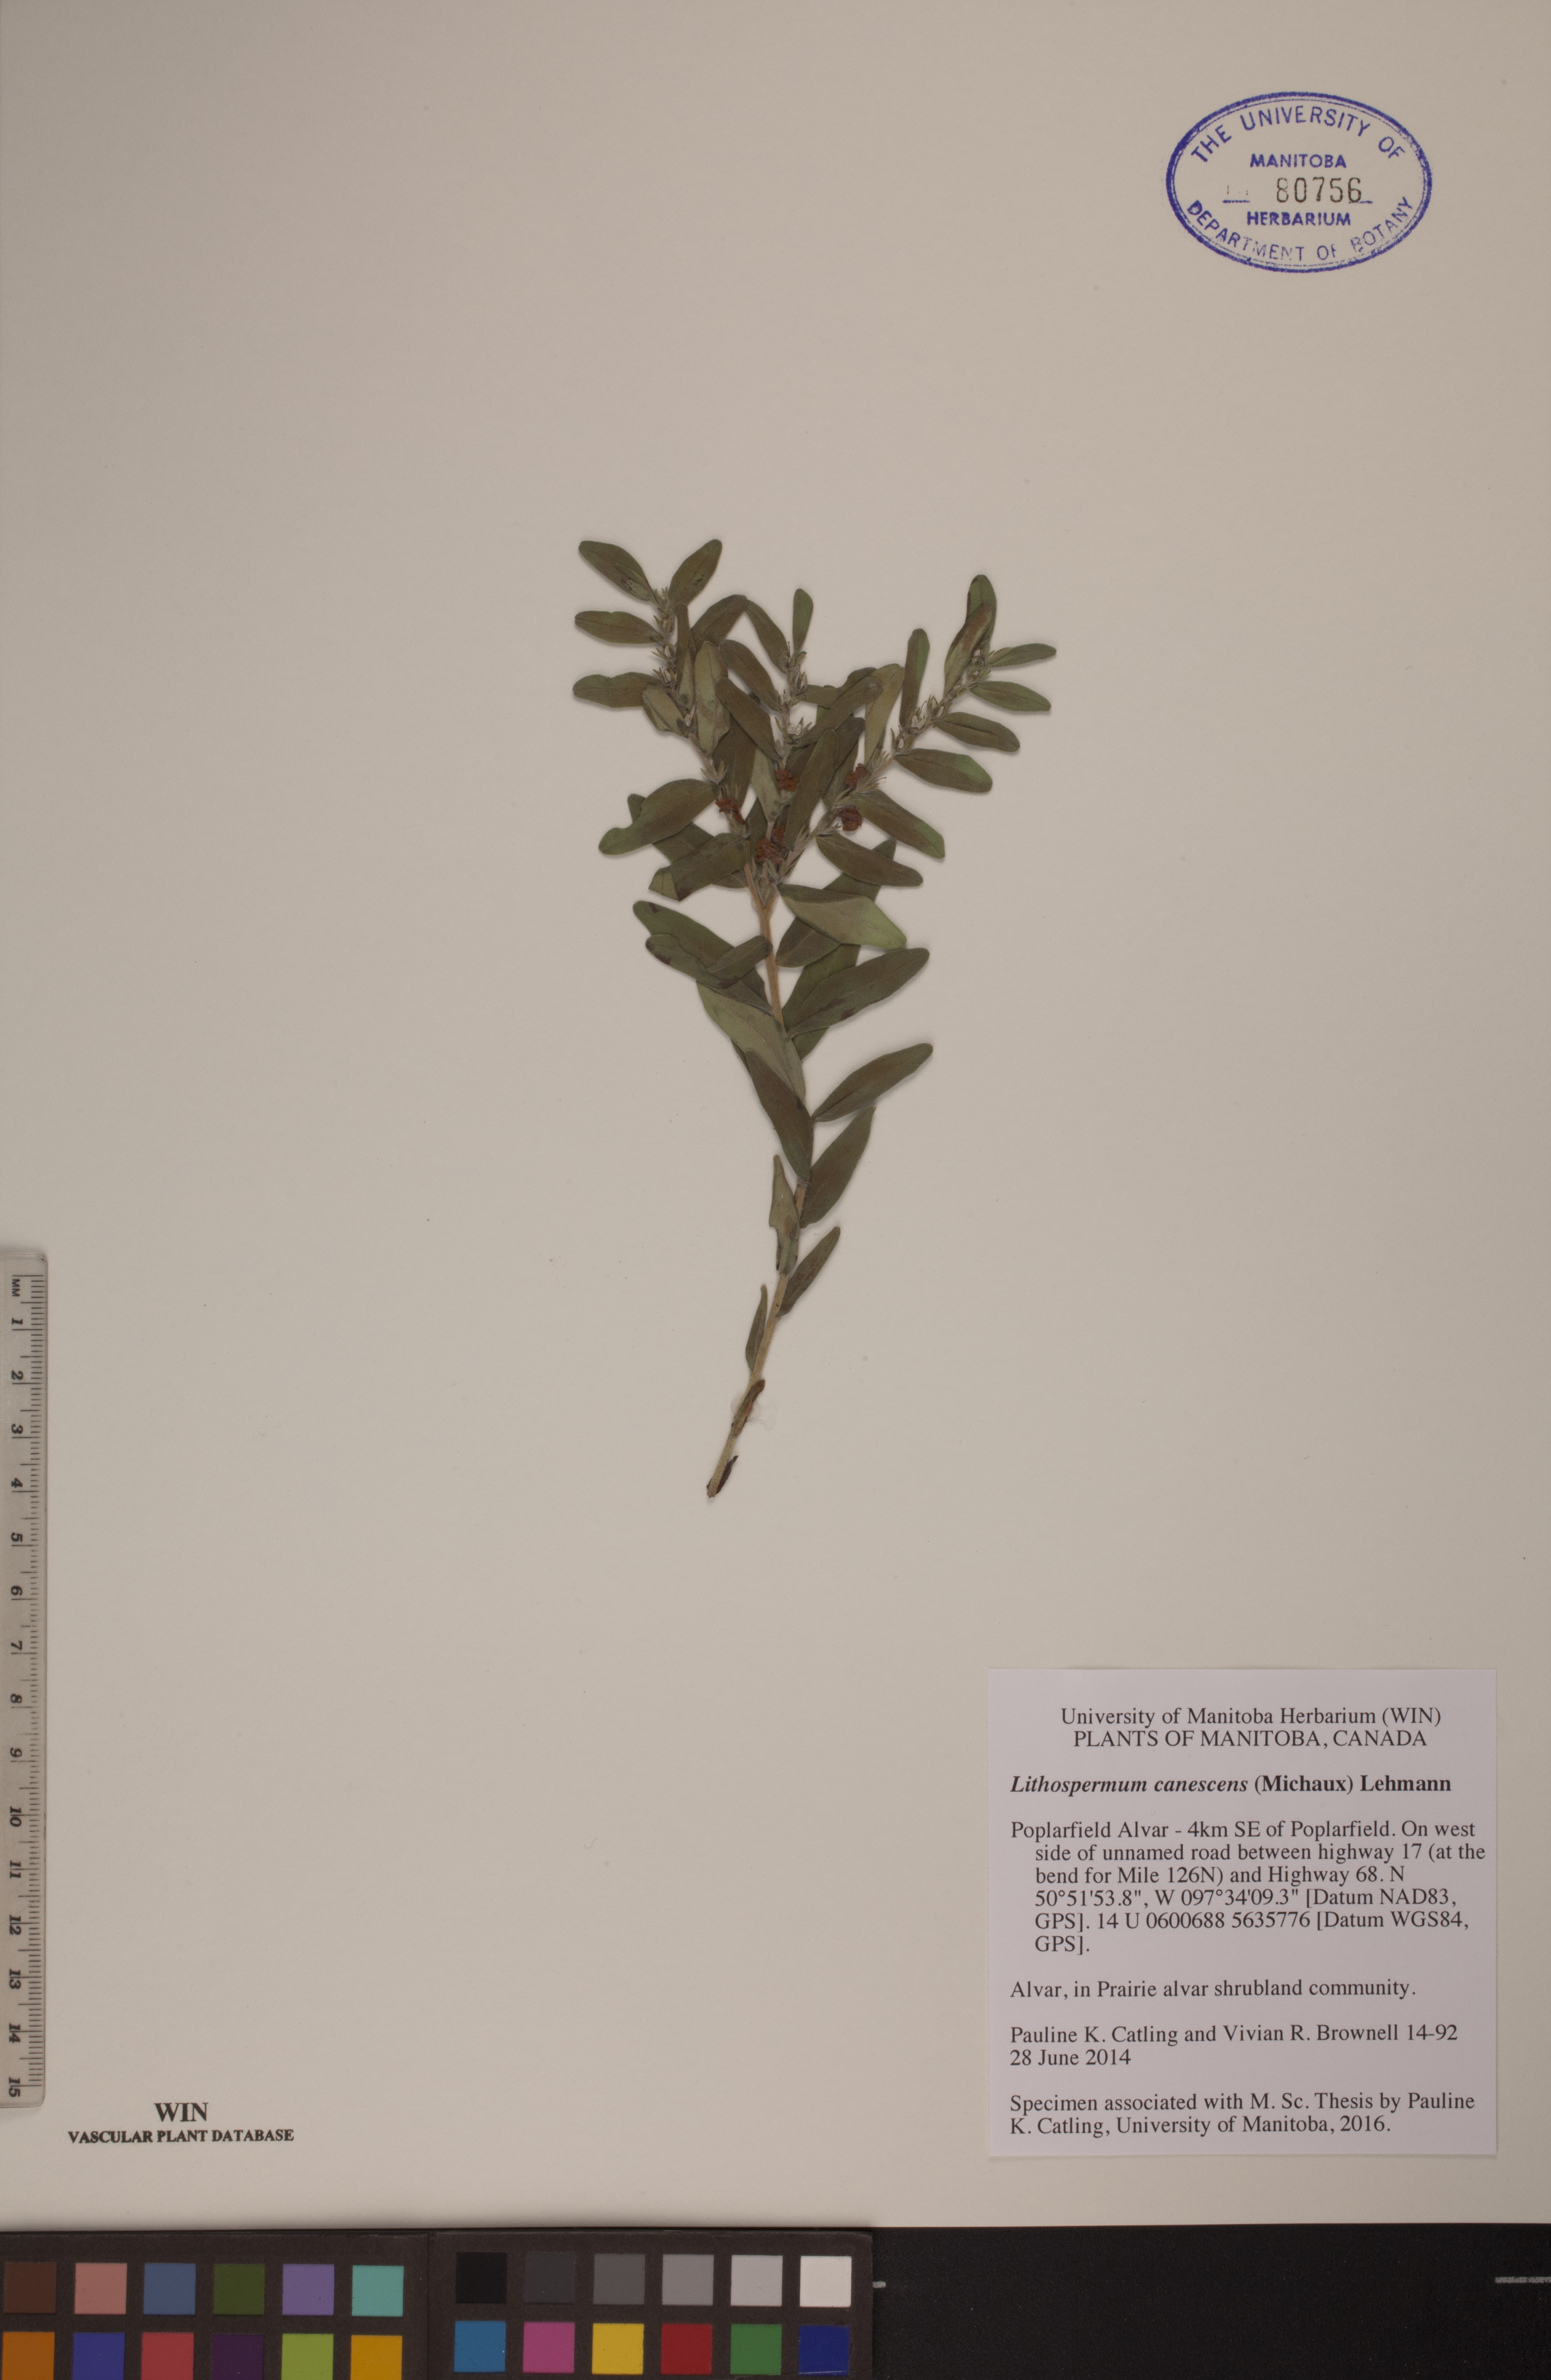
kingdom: Plantae
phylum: Tracheophyta
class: Magnoliopsida
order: Boraginales
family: Boraginaceae
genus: Lithospermum
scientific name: Lithospermum canescens
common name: Hoary puccoon
